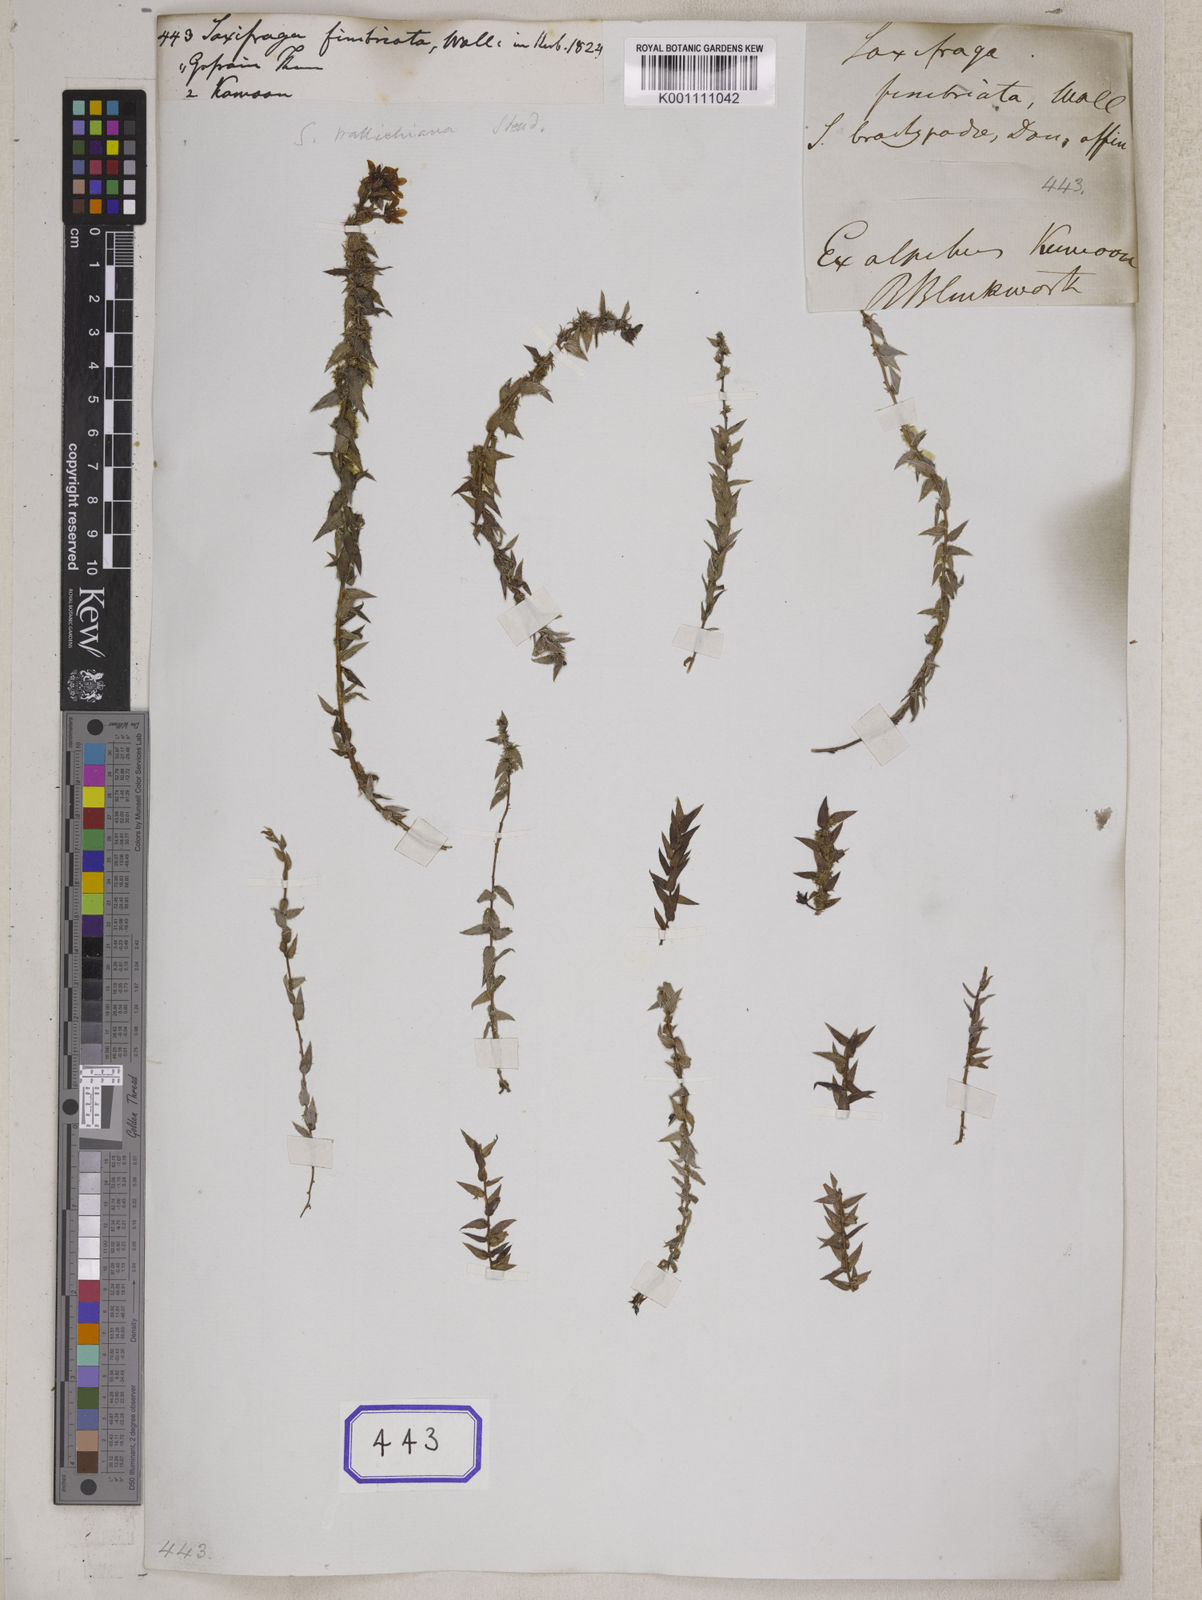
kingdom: Plantae
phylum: Tracheophyta
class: Magnoliopsida
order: Saxifragales
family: Saxifragaceae
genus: Saxifraga
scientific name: Saxifraga
